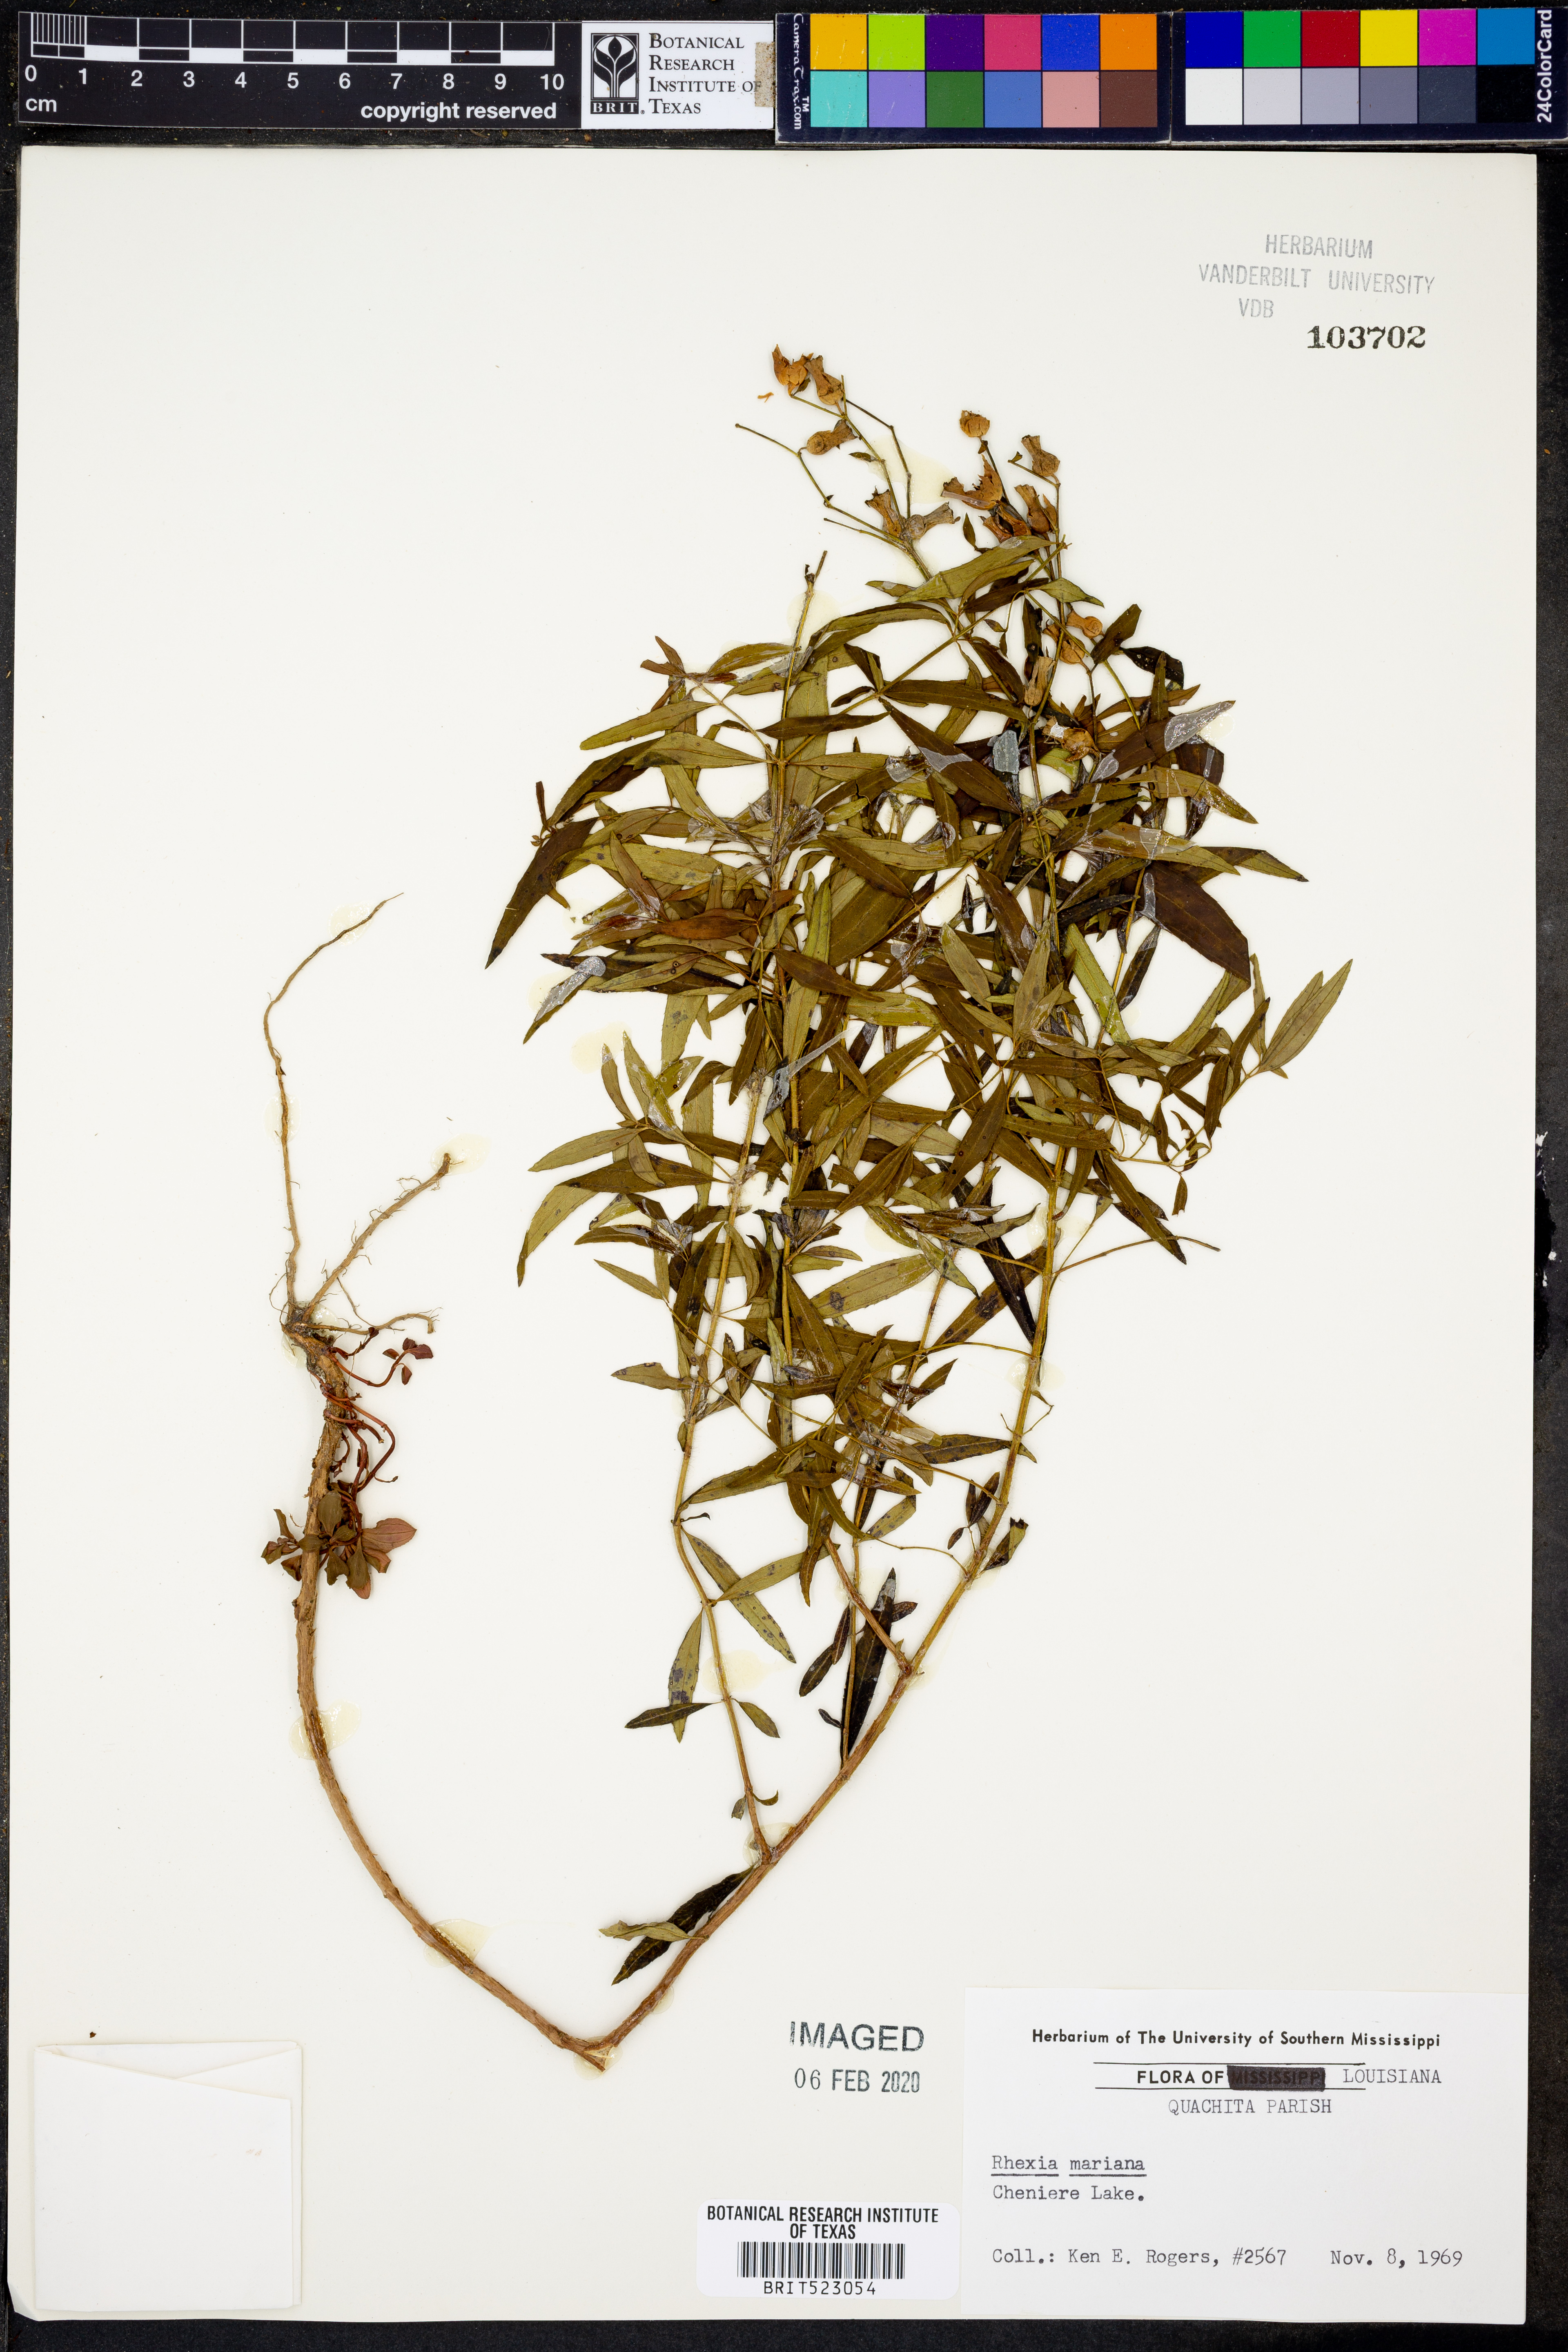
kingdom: Plantae
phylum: Tracheophyta
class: Magnoliopsida
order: Myrtales
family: Melastomataceae
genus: Rhexia
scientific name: Rhexia mariana
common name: Dull meadow-pitcher
